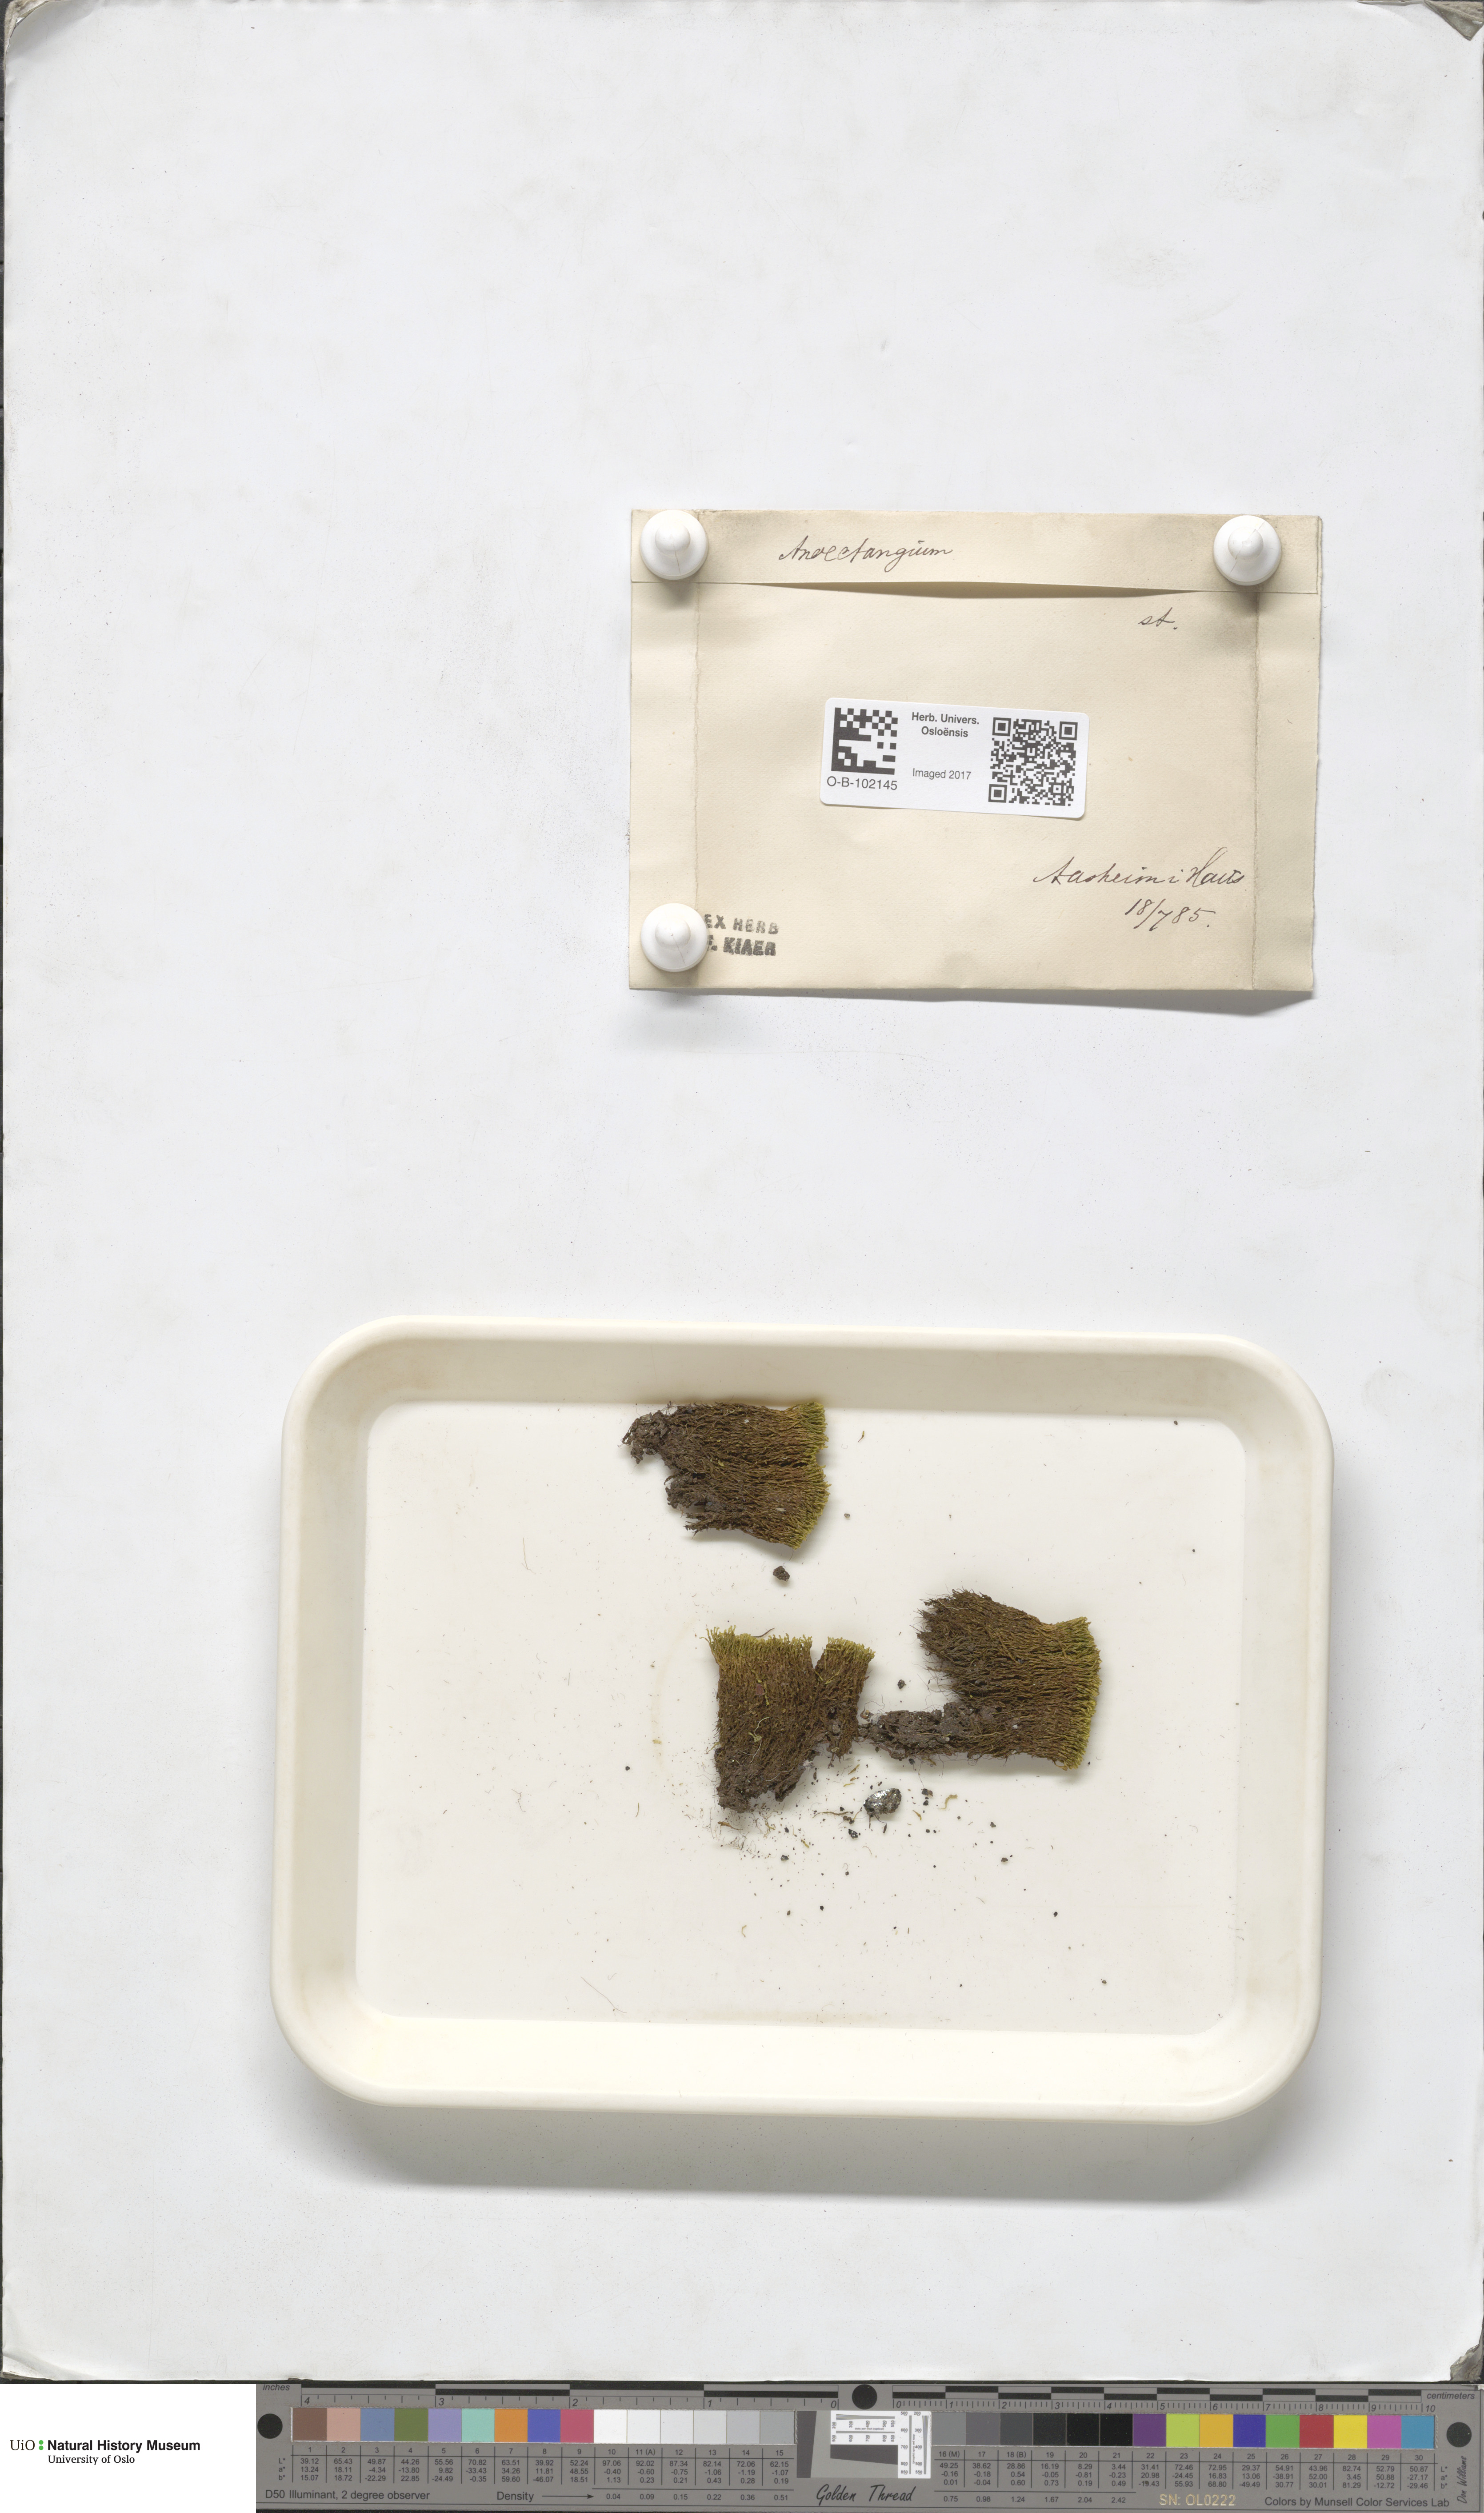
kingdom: Plantae
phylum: Bryophyta
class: Bryopsida
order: Pottiales
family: Pottiaceae
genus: Anoectangium
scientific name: Anoectangium aestivum
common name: Summer-moss
